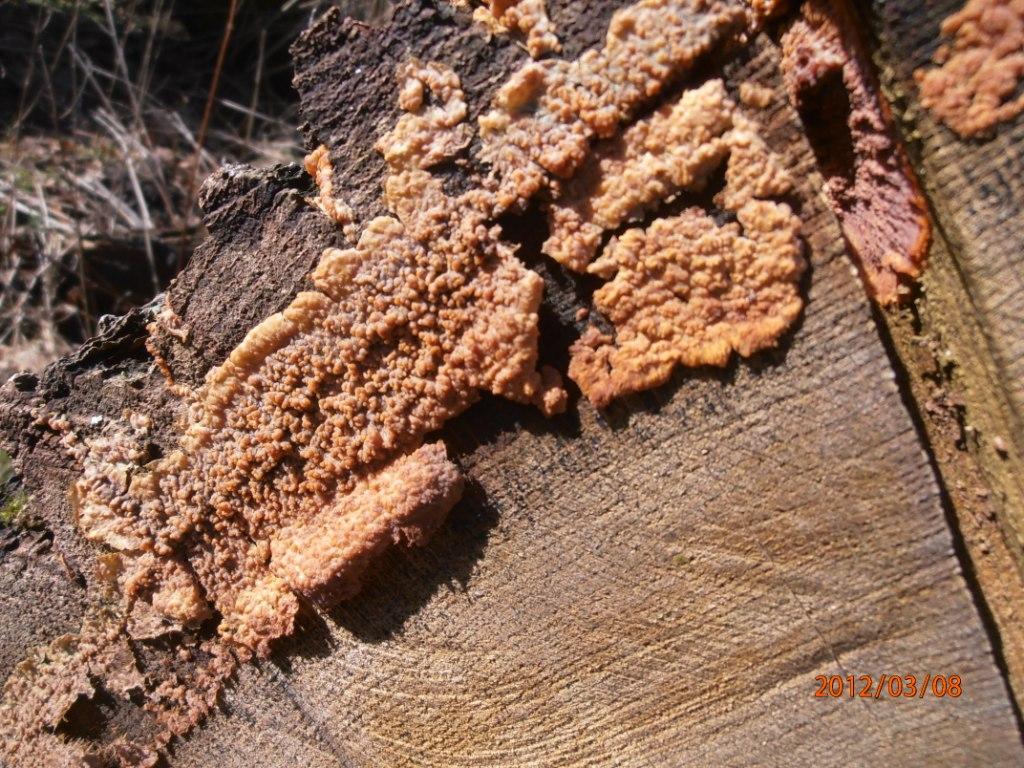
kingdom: Fungi
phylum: Basidiomycota
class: Agaricomycetes
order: Polyporales
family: Meruliaceae
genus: Phlebia
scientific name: Phlebia radiata
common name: stråle-åresvamp
